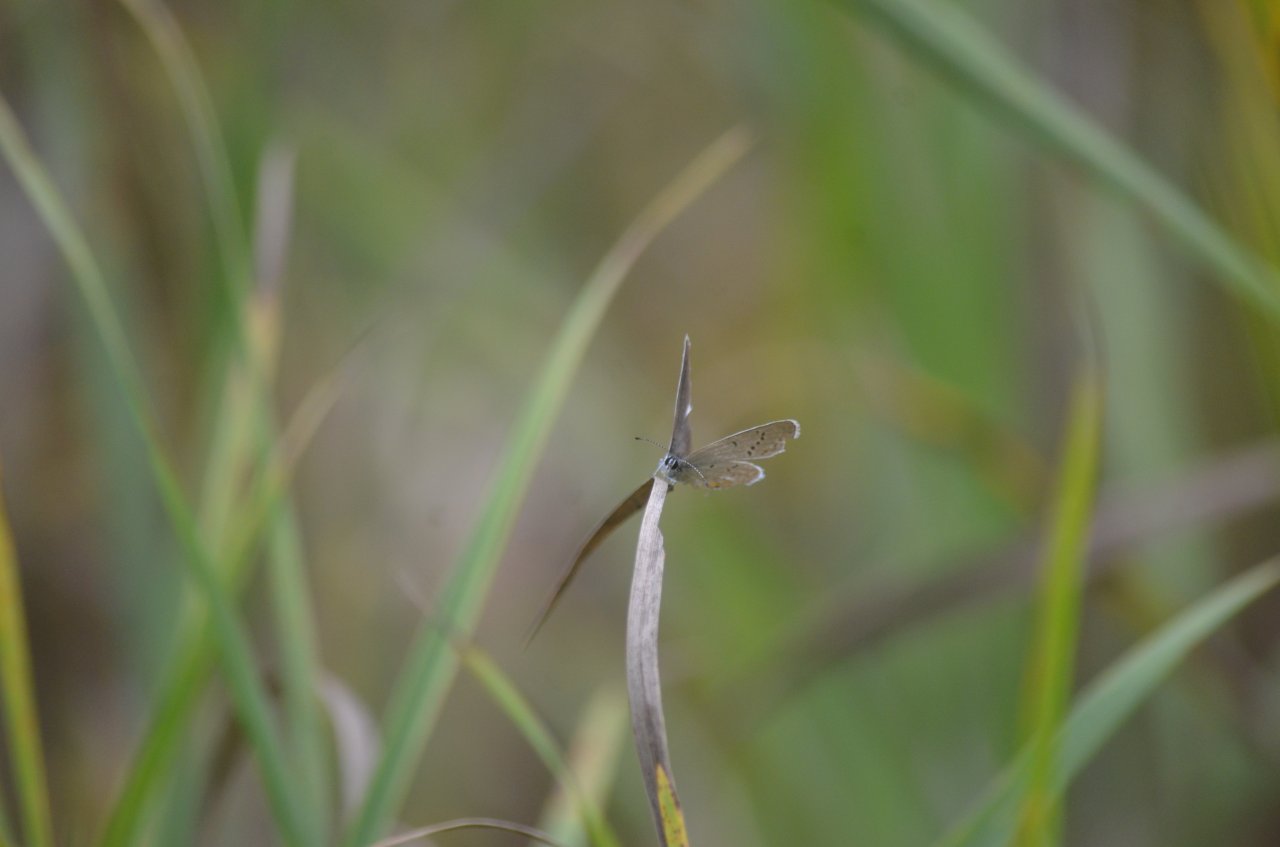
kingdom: Animalia
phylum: Arthropoda
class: Insecta
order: Lepidoptera
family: Lycaenidae
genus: Elkalyce
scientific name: Elkalyce comyntas
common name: Eastern Tailed-Blue
